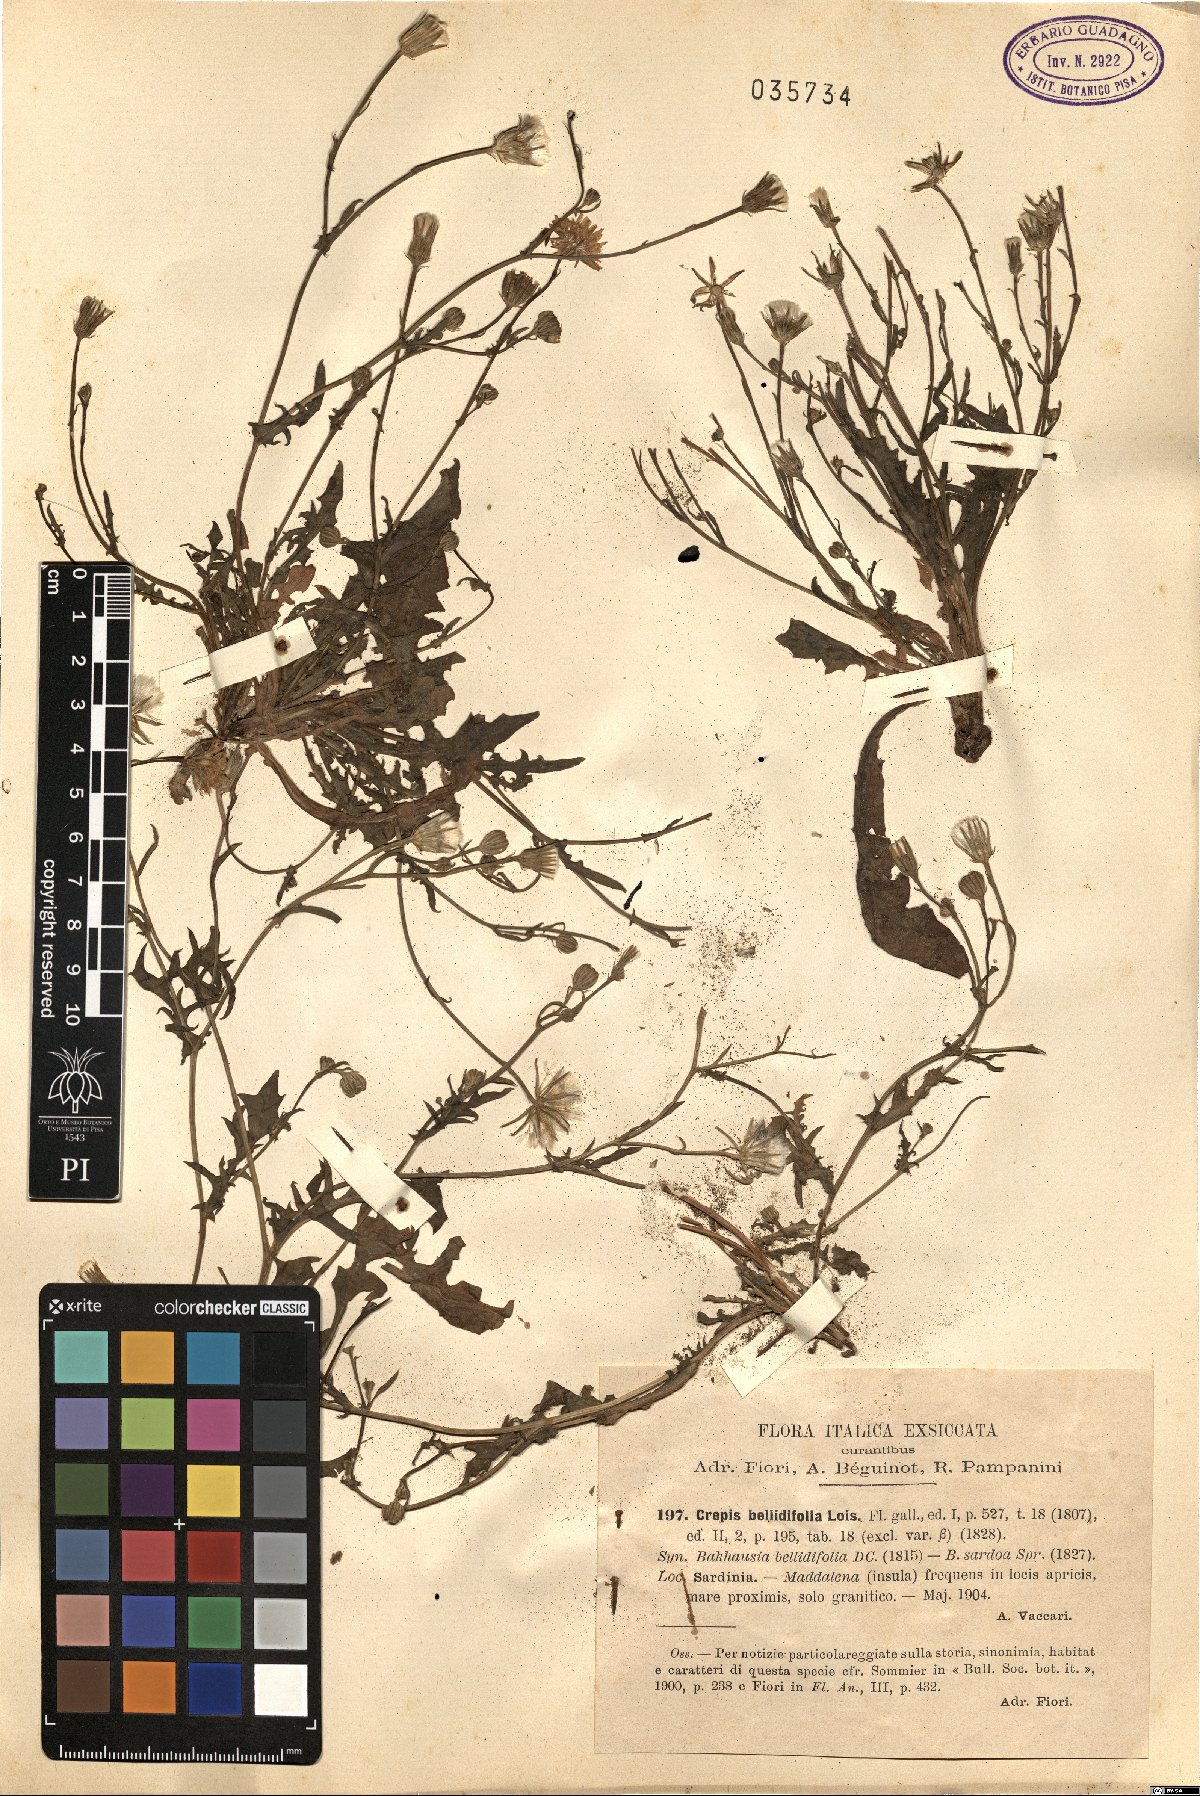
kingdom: Plantae
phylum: Tracheophyta
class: Magnoliopsida
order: Asterales
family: Asteraceae
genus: Crepis
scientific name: Crepis bellidifolia
